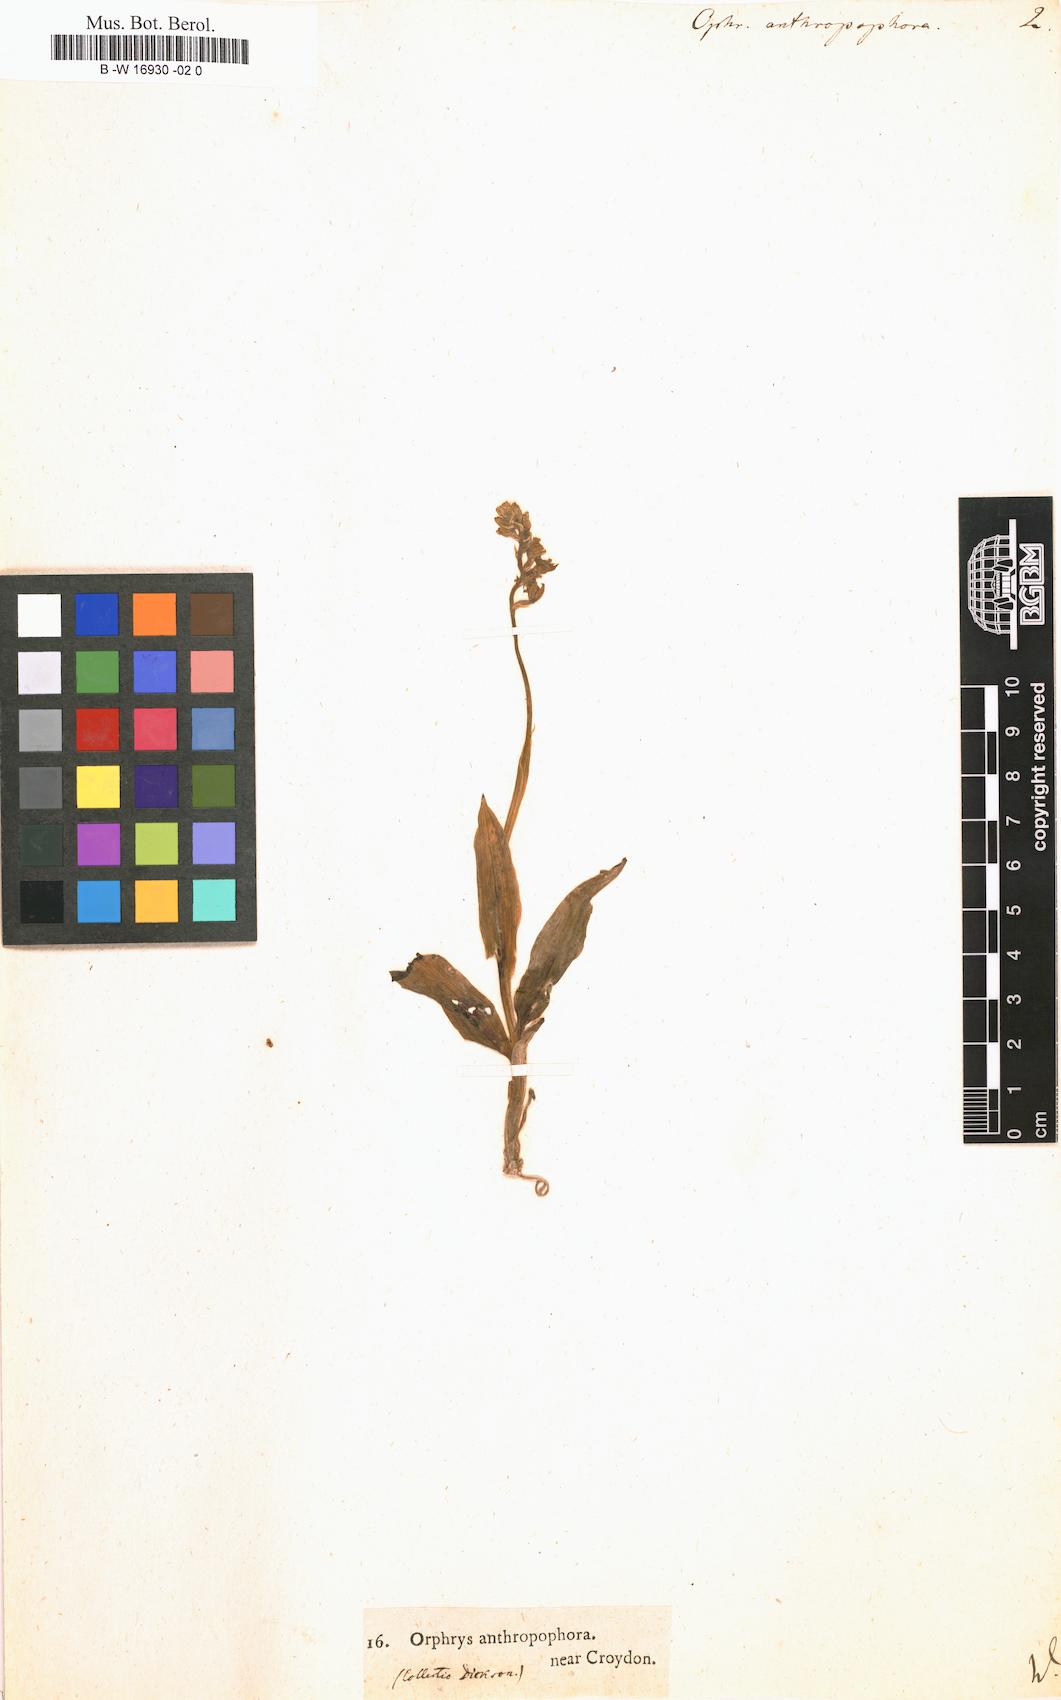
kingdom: Plantae
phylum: Tracheophyta
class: Liliopsida
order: Asparagales
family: Orchidaceae
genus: Orchis
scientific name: Orchis anthropophora
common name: Man orchid
